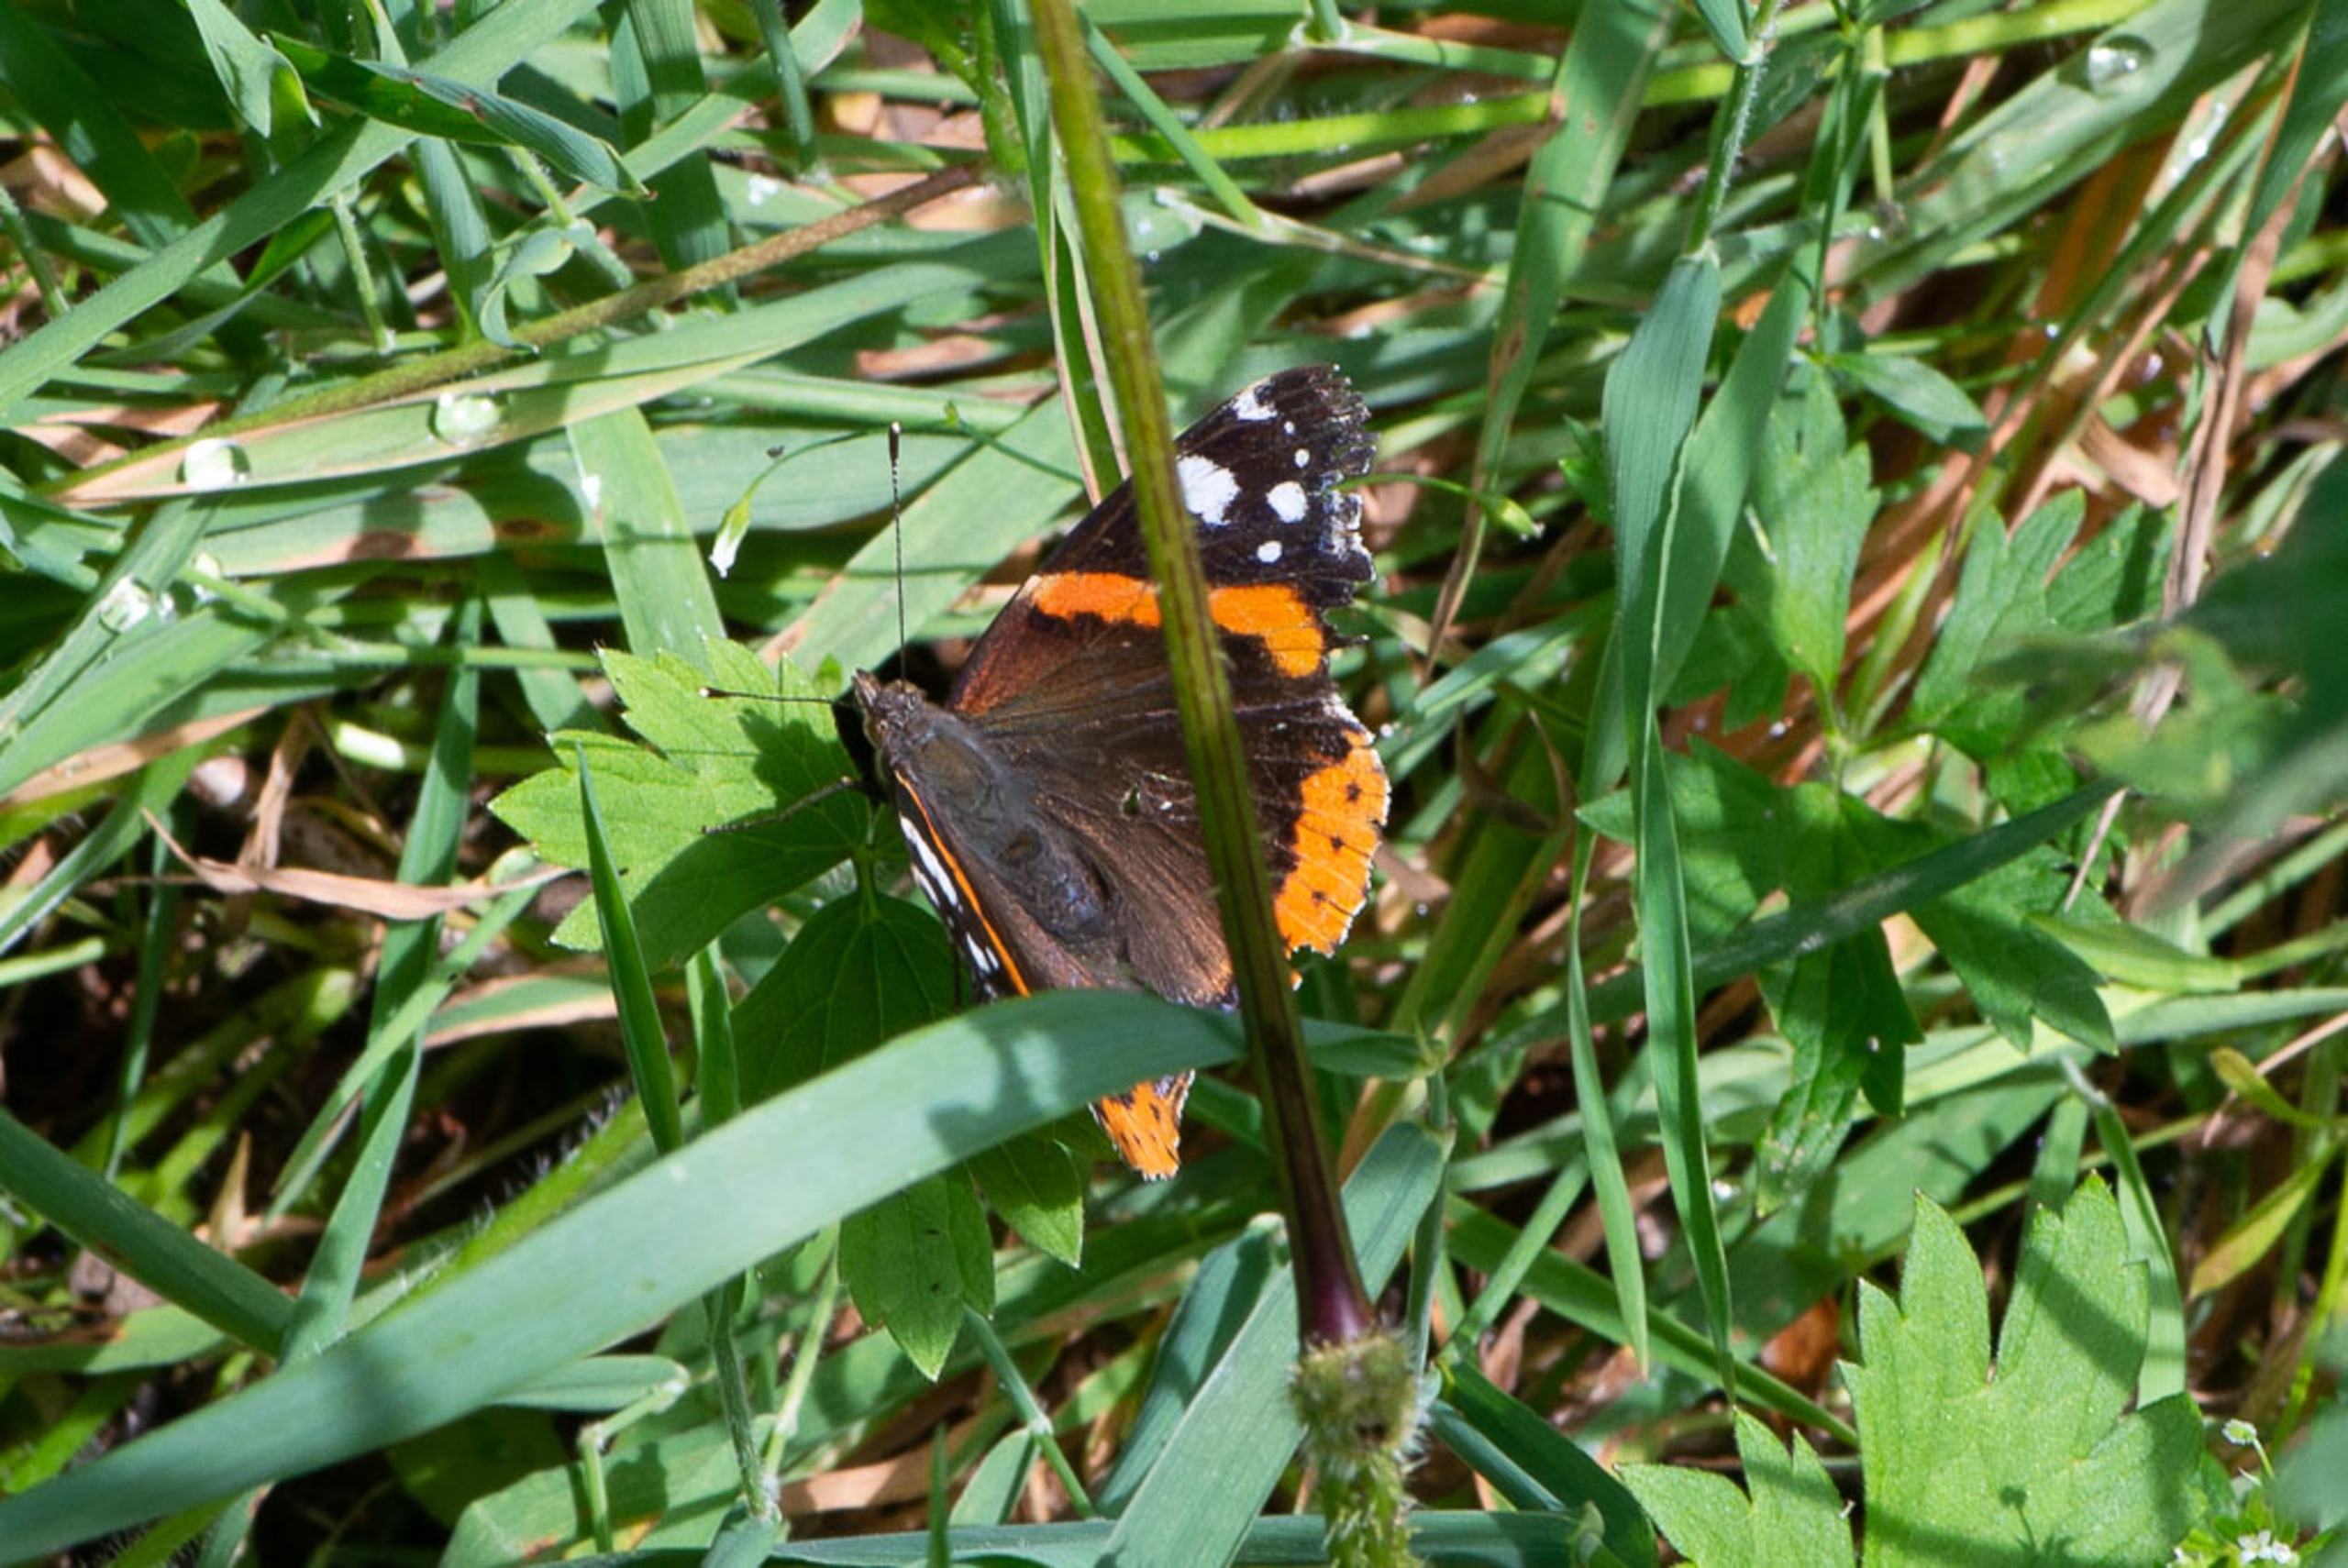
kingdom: Animalia
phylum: Arthropoda
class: Insecta
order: Lepidoptera
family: Nymphalidae
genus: Vanessa
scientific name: Vanessa atalanta
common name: Admiral
